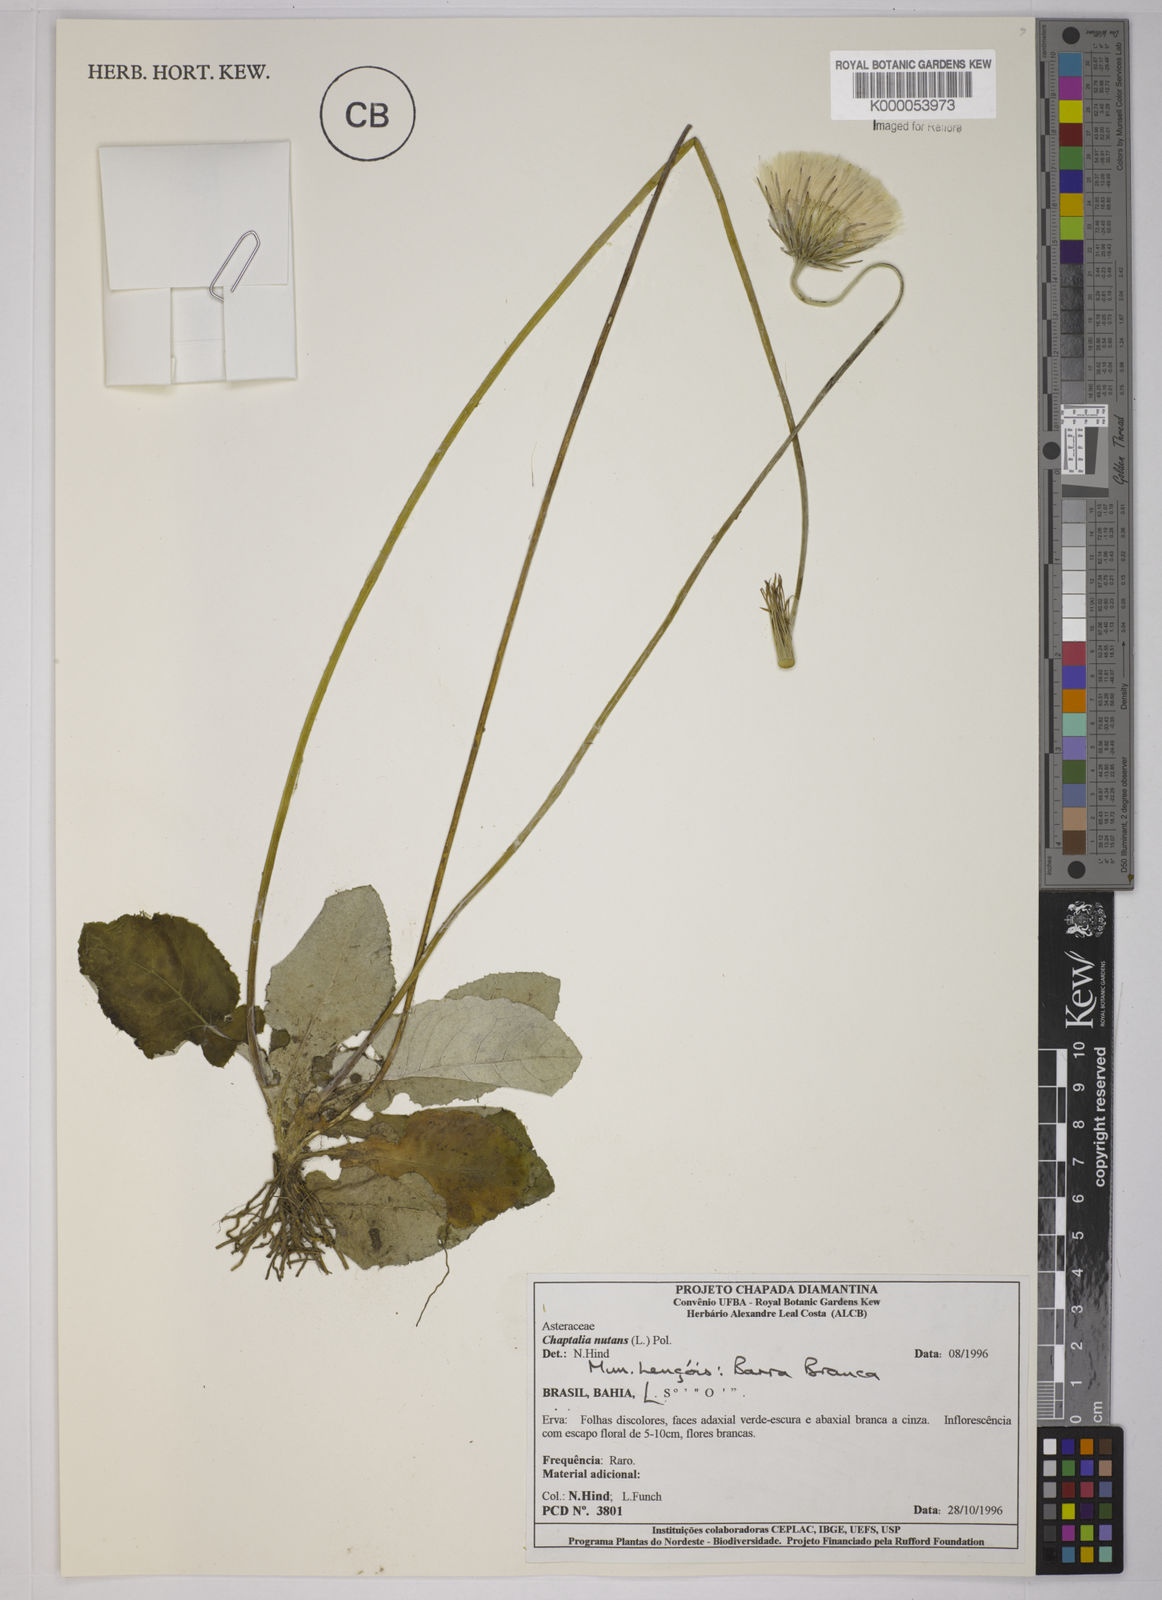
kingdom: Plantae
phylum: Tracheophyta
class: Magnoliopsida
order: Asterales
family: Asteraceae
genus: Chaptalia
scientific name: Chaptalia nutans
